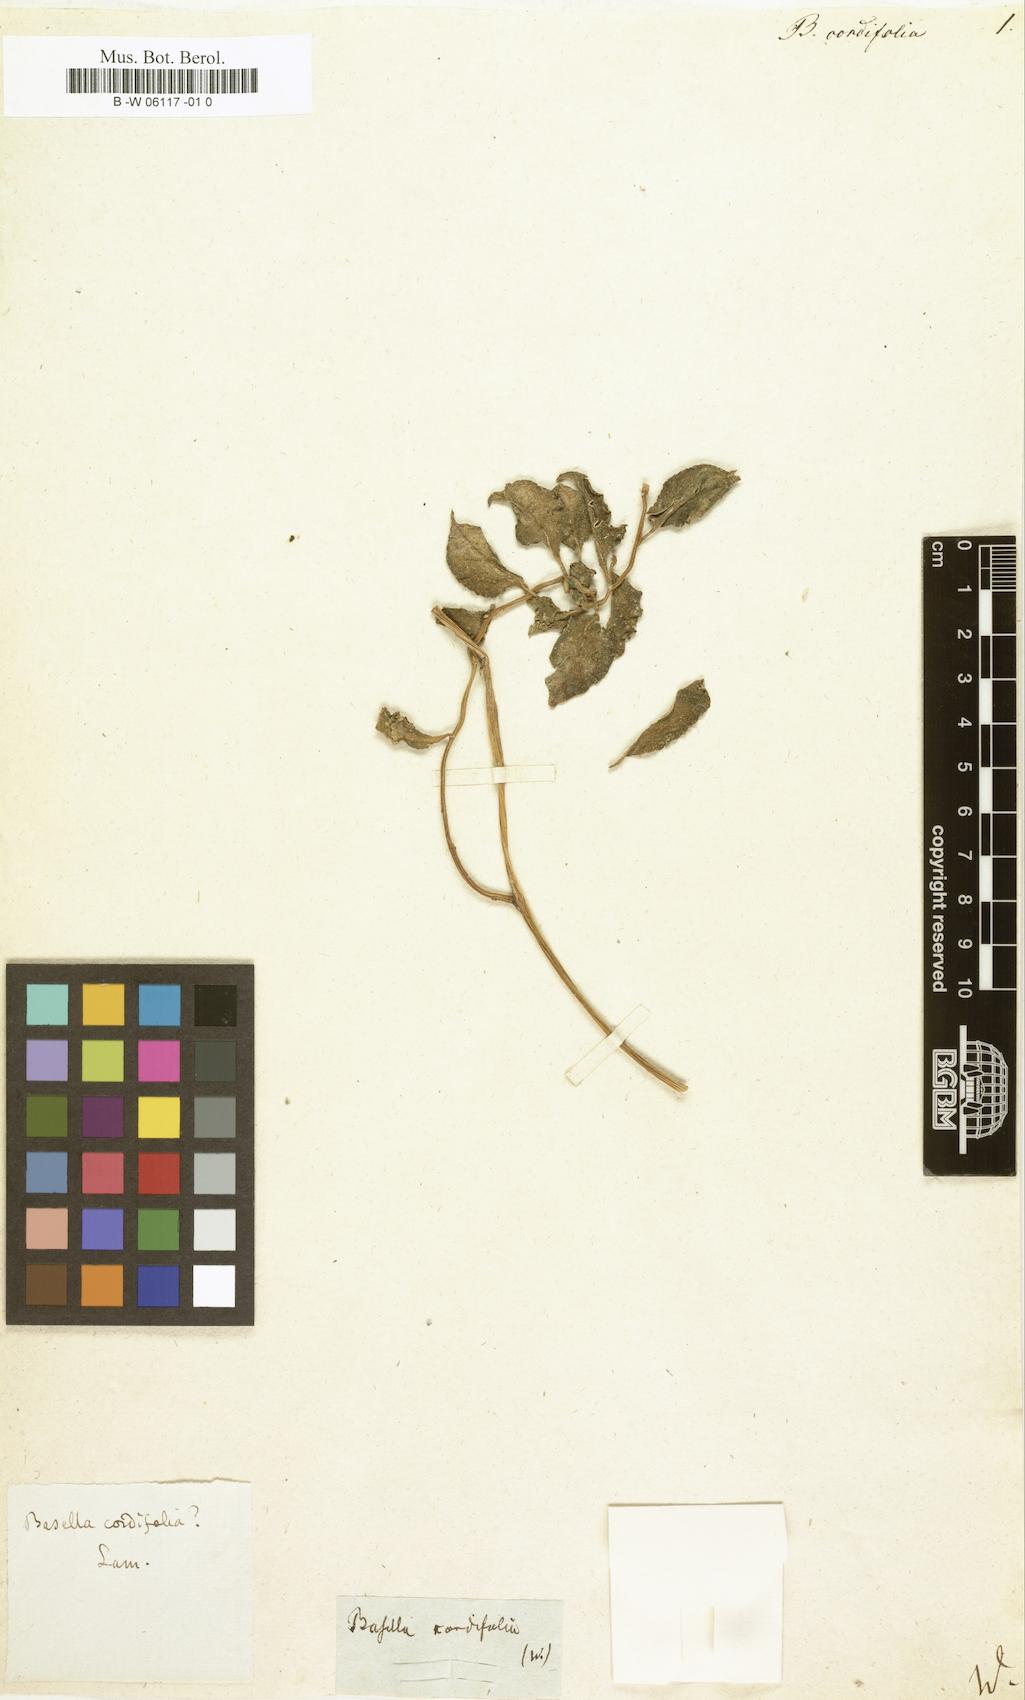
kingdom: Plantae
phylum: Tracheophyta
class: Magnoliopsida
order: Caryophyllales
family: Basellaceae
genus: Basella
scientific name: Basella alba
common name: Indian spinach
